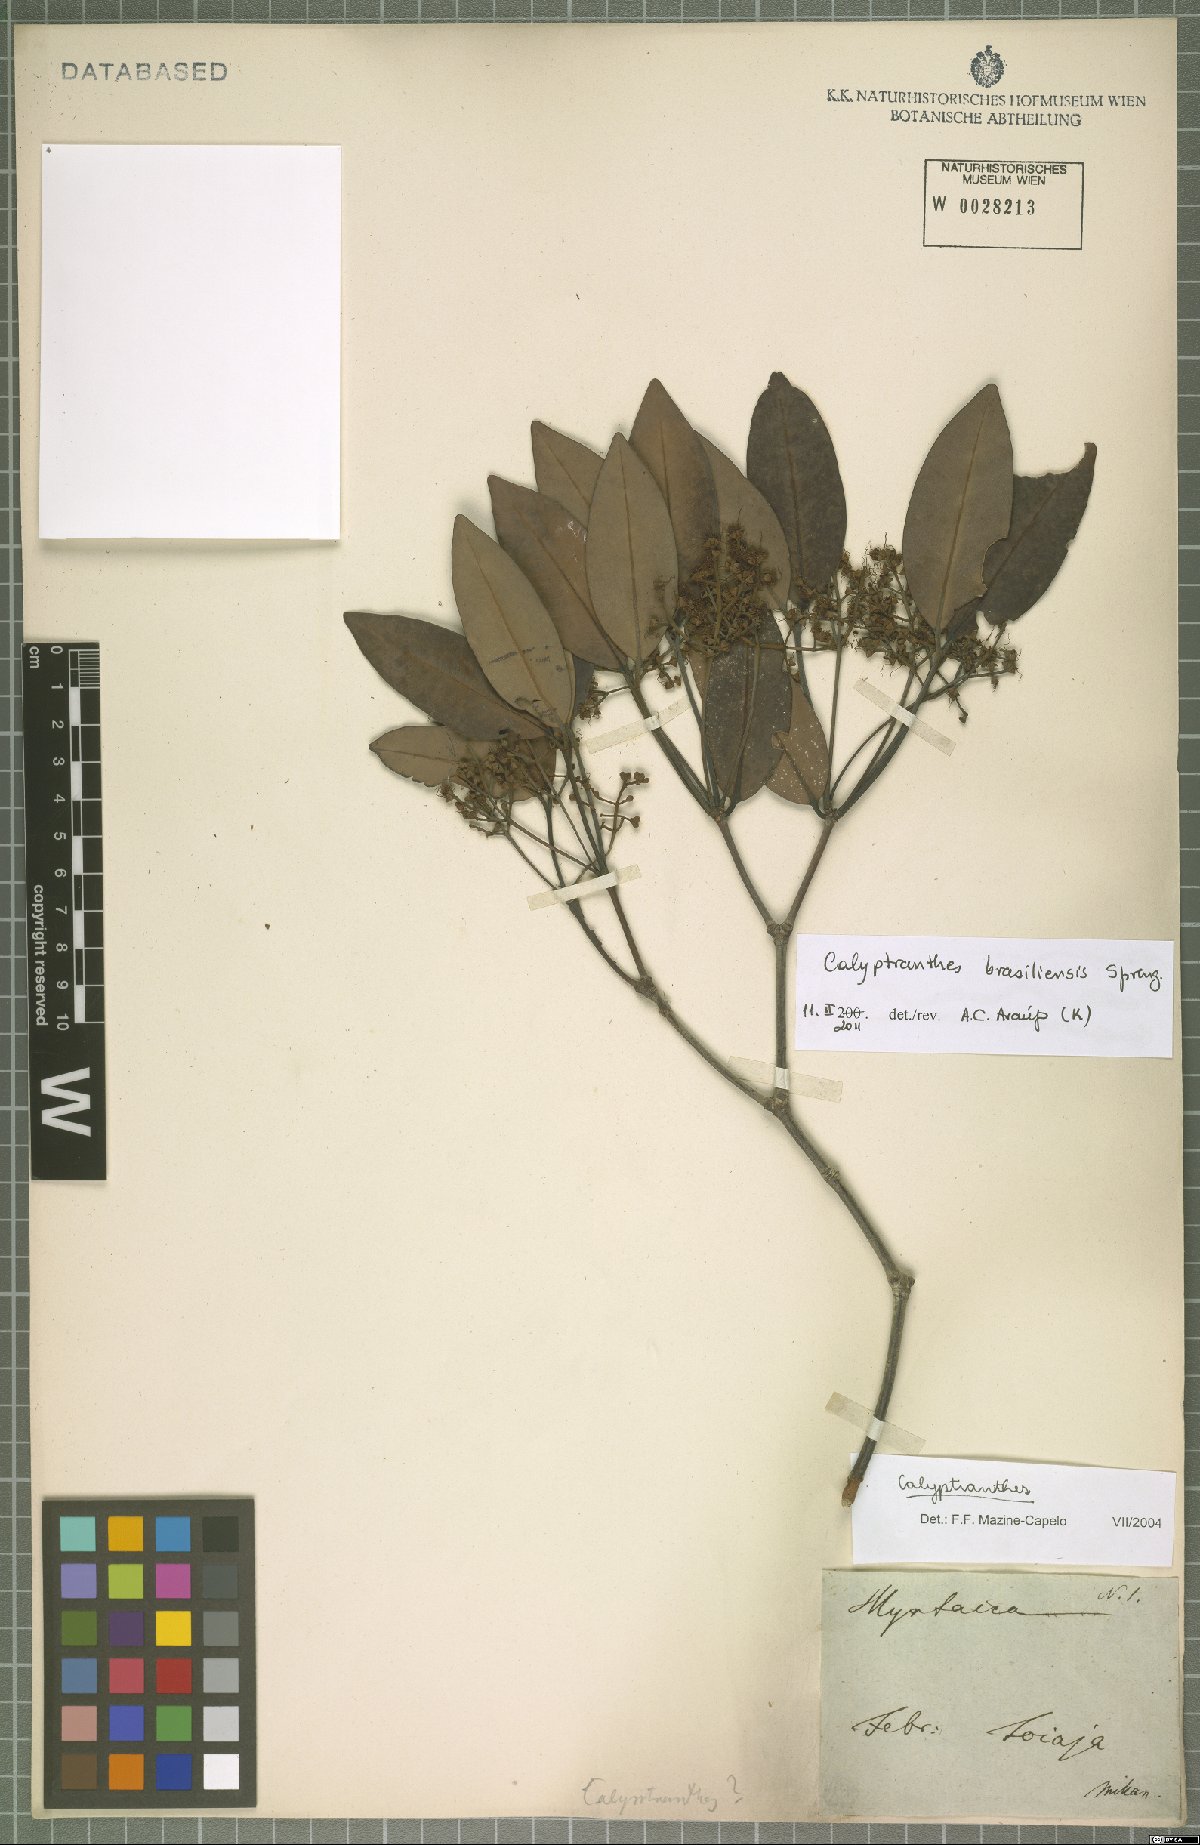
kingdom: Plantae
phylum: Tracheophyta
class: Magnoliopsida
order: Myrtales
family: Myrtaceae
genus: Myrcia
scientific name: Myrcia neobrasiliensis
